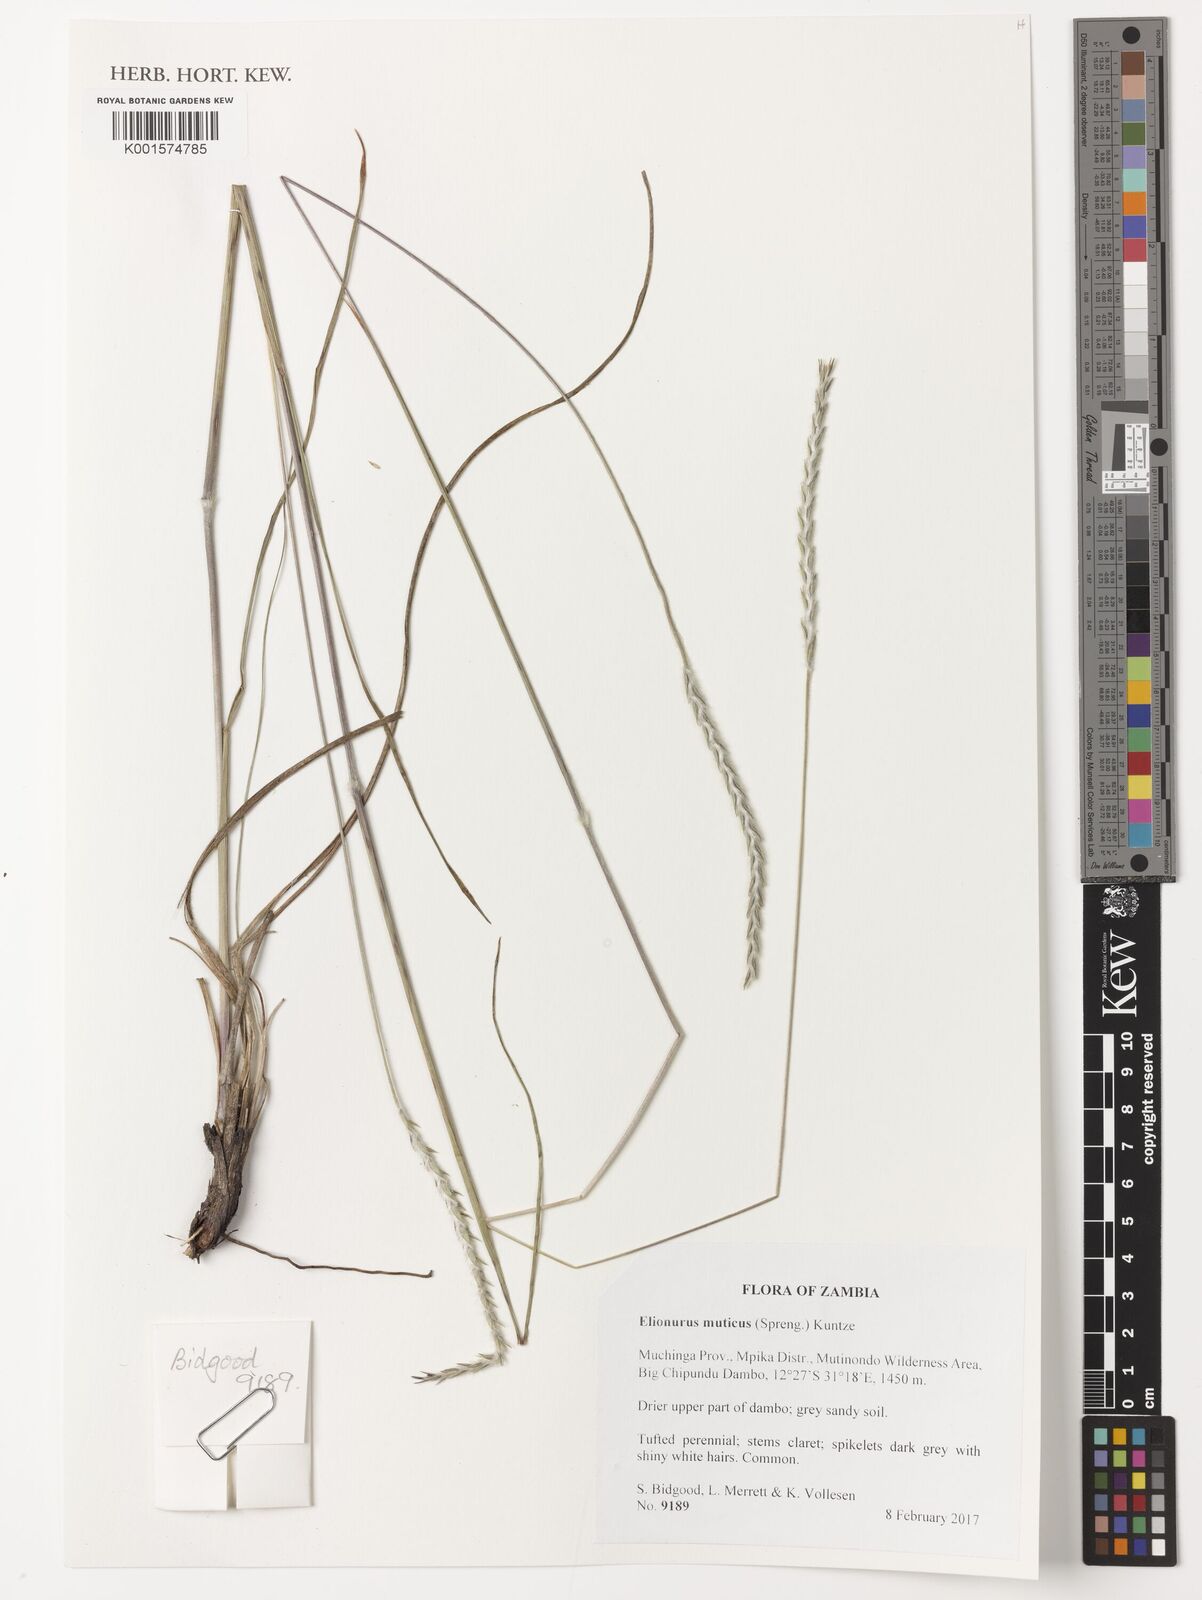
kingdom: Plantae
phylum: Tracheophyta
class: Liliopsida
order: Poales
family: Poaceae
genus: Elionurus
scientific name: Elionurus muticus
